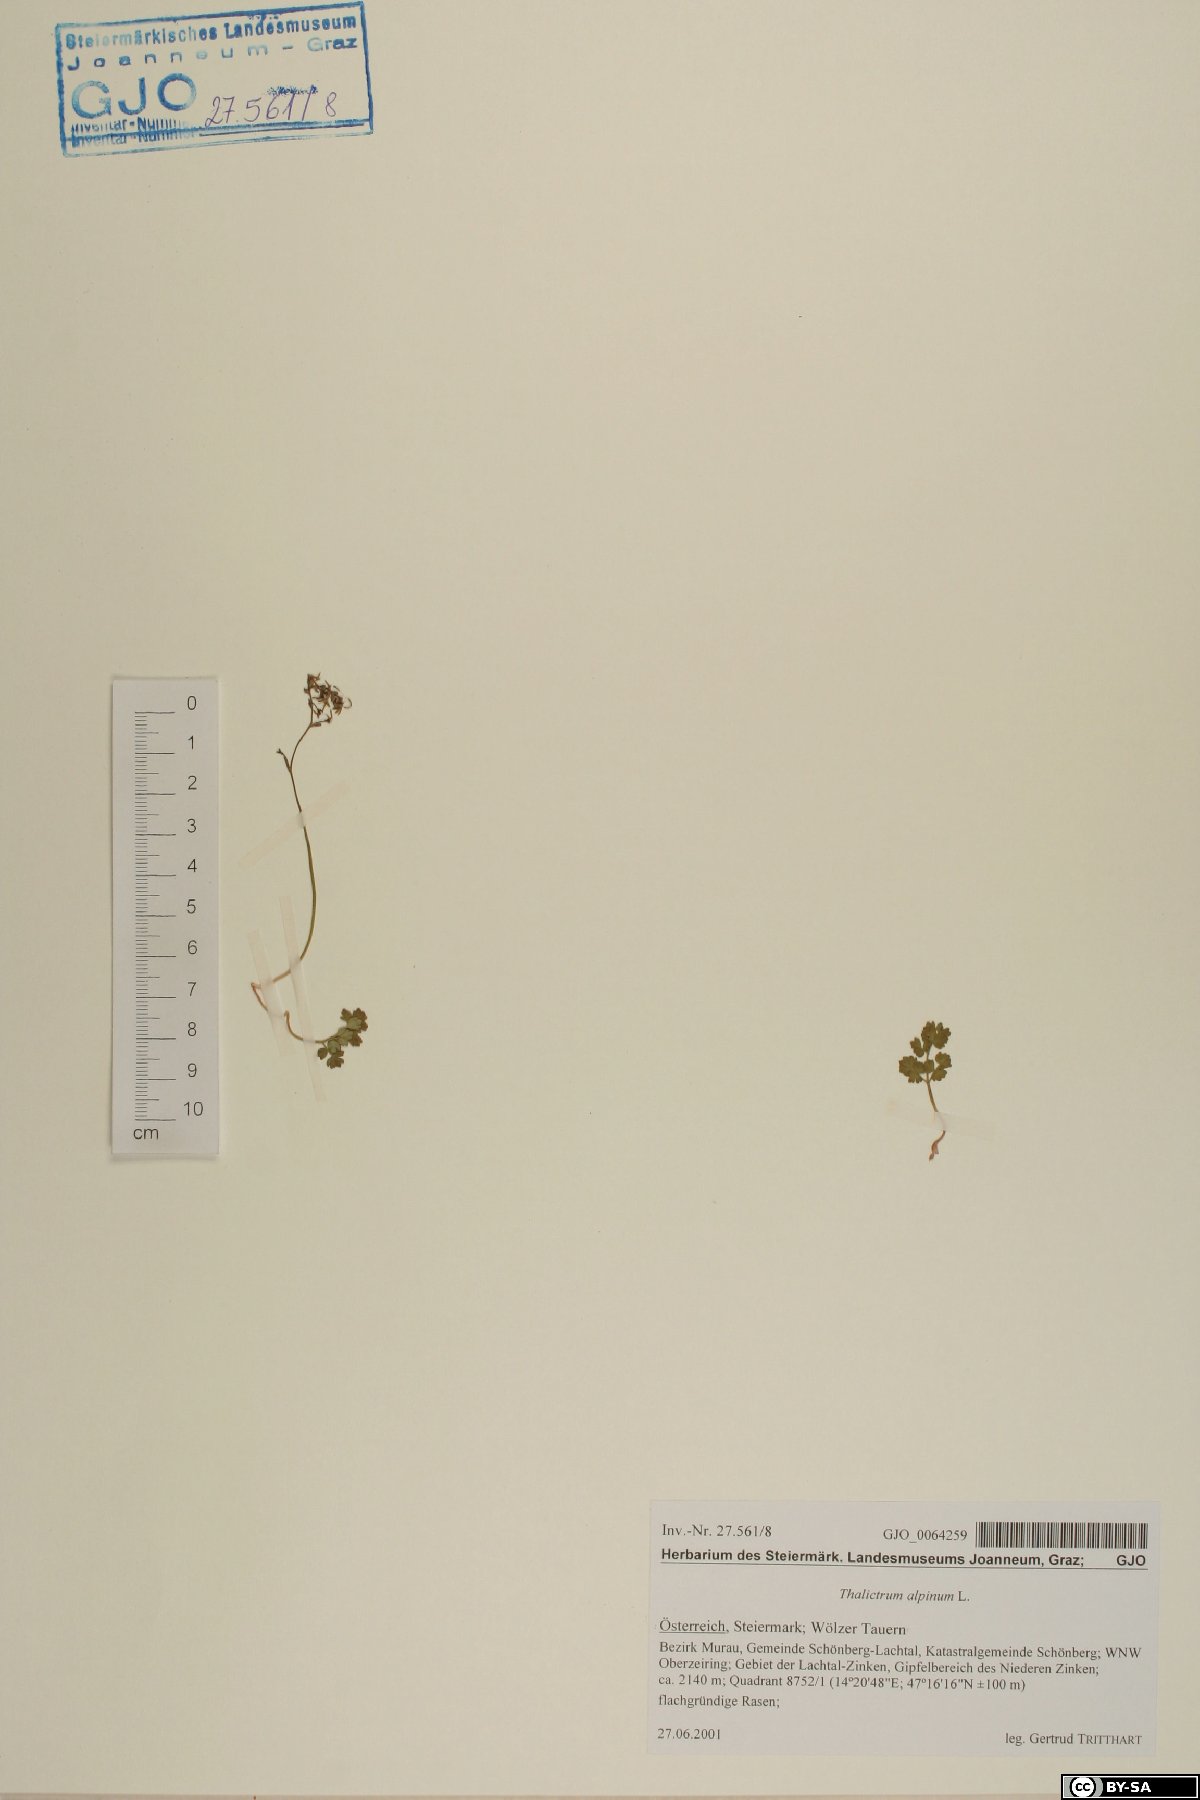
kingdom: Plantae
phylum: Tracheophyta
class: Magnoliopsida
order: Ranunculales
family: Ranunculaceae
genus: Thalictrum
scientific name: Thalictrum alpinum
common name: Alpine meadow-rue
